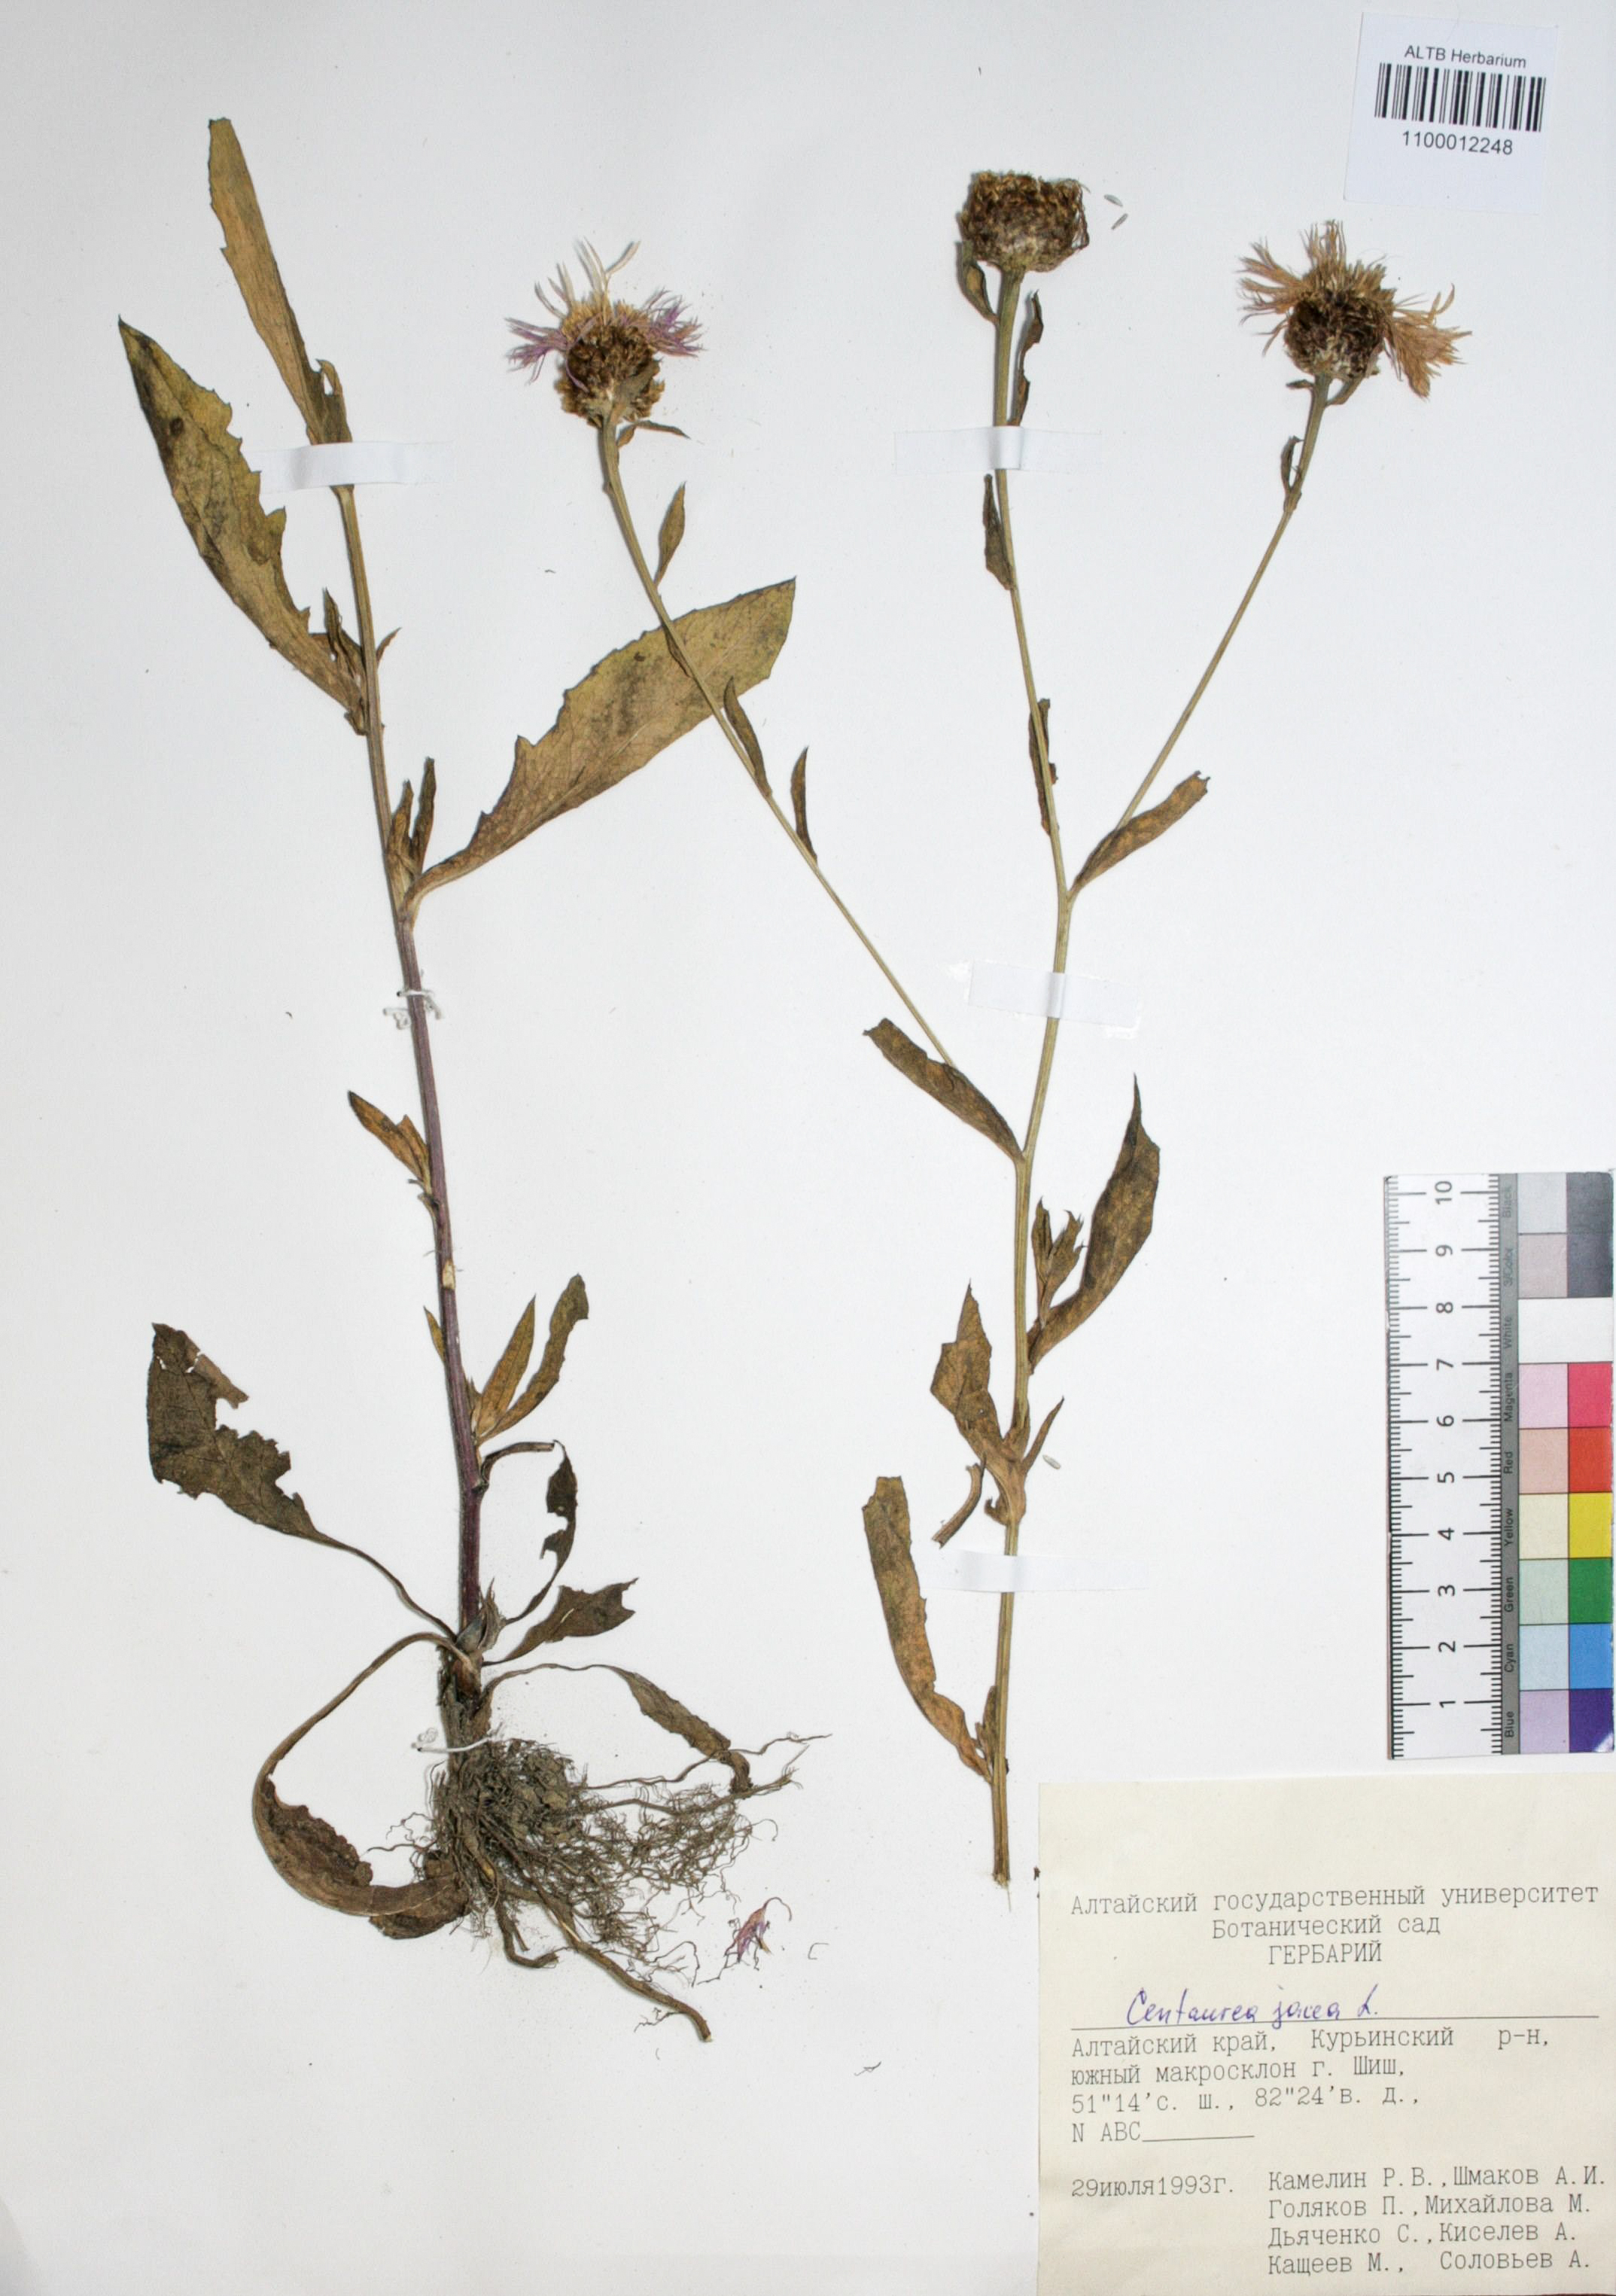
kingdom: Plantae
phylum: Tracheophyta
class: Magnoliopsida
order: Asterales
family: Asteraceae
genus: Centaurea
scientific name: Centaurea jacea
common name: Brown knapweed
